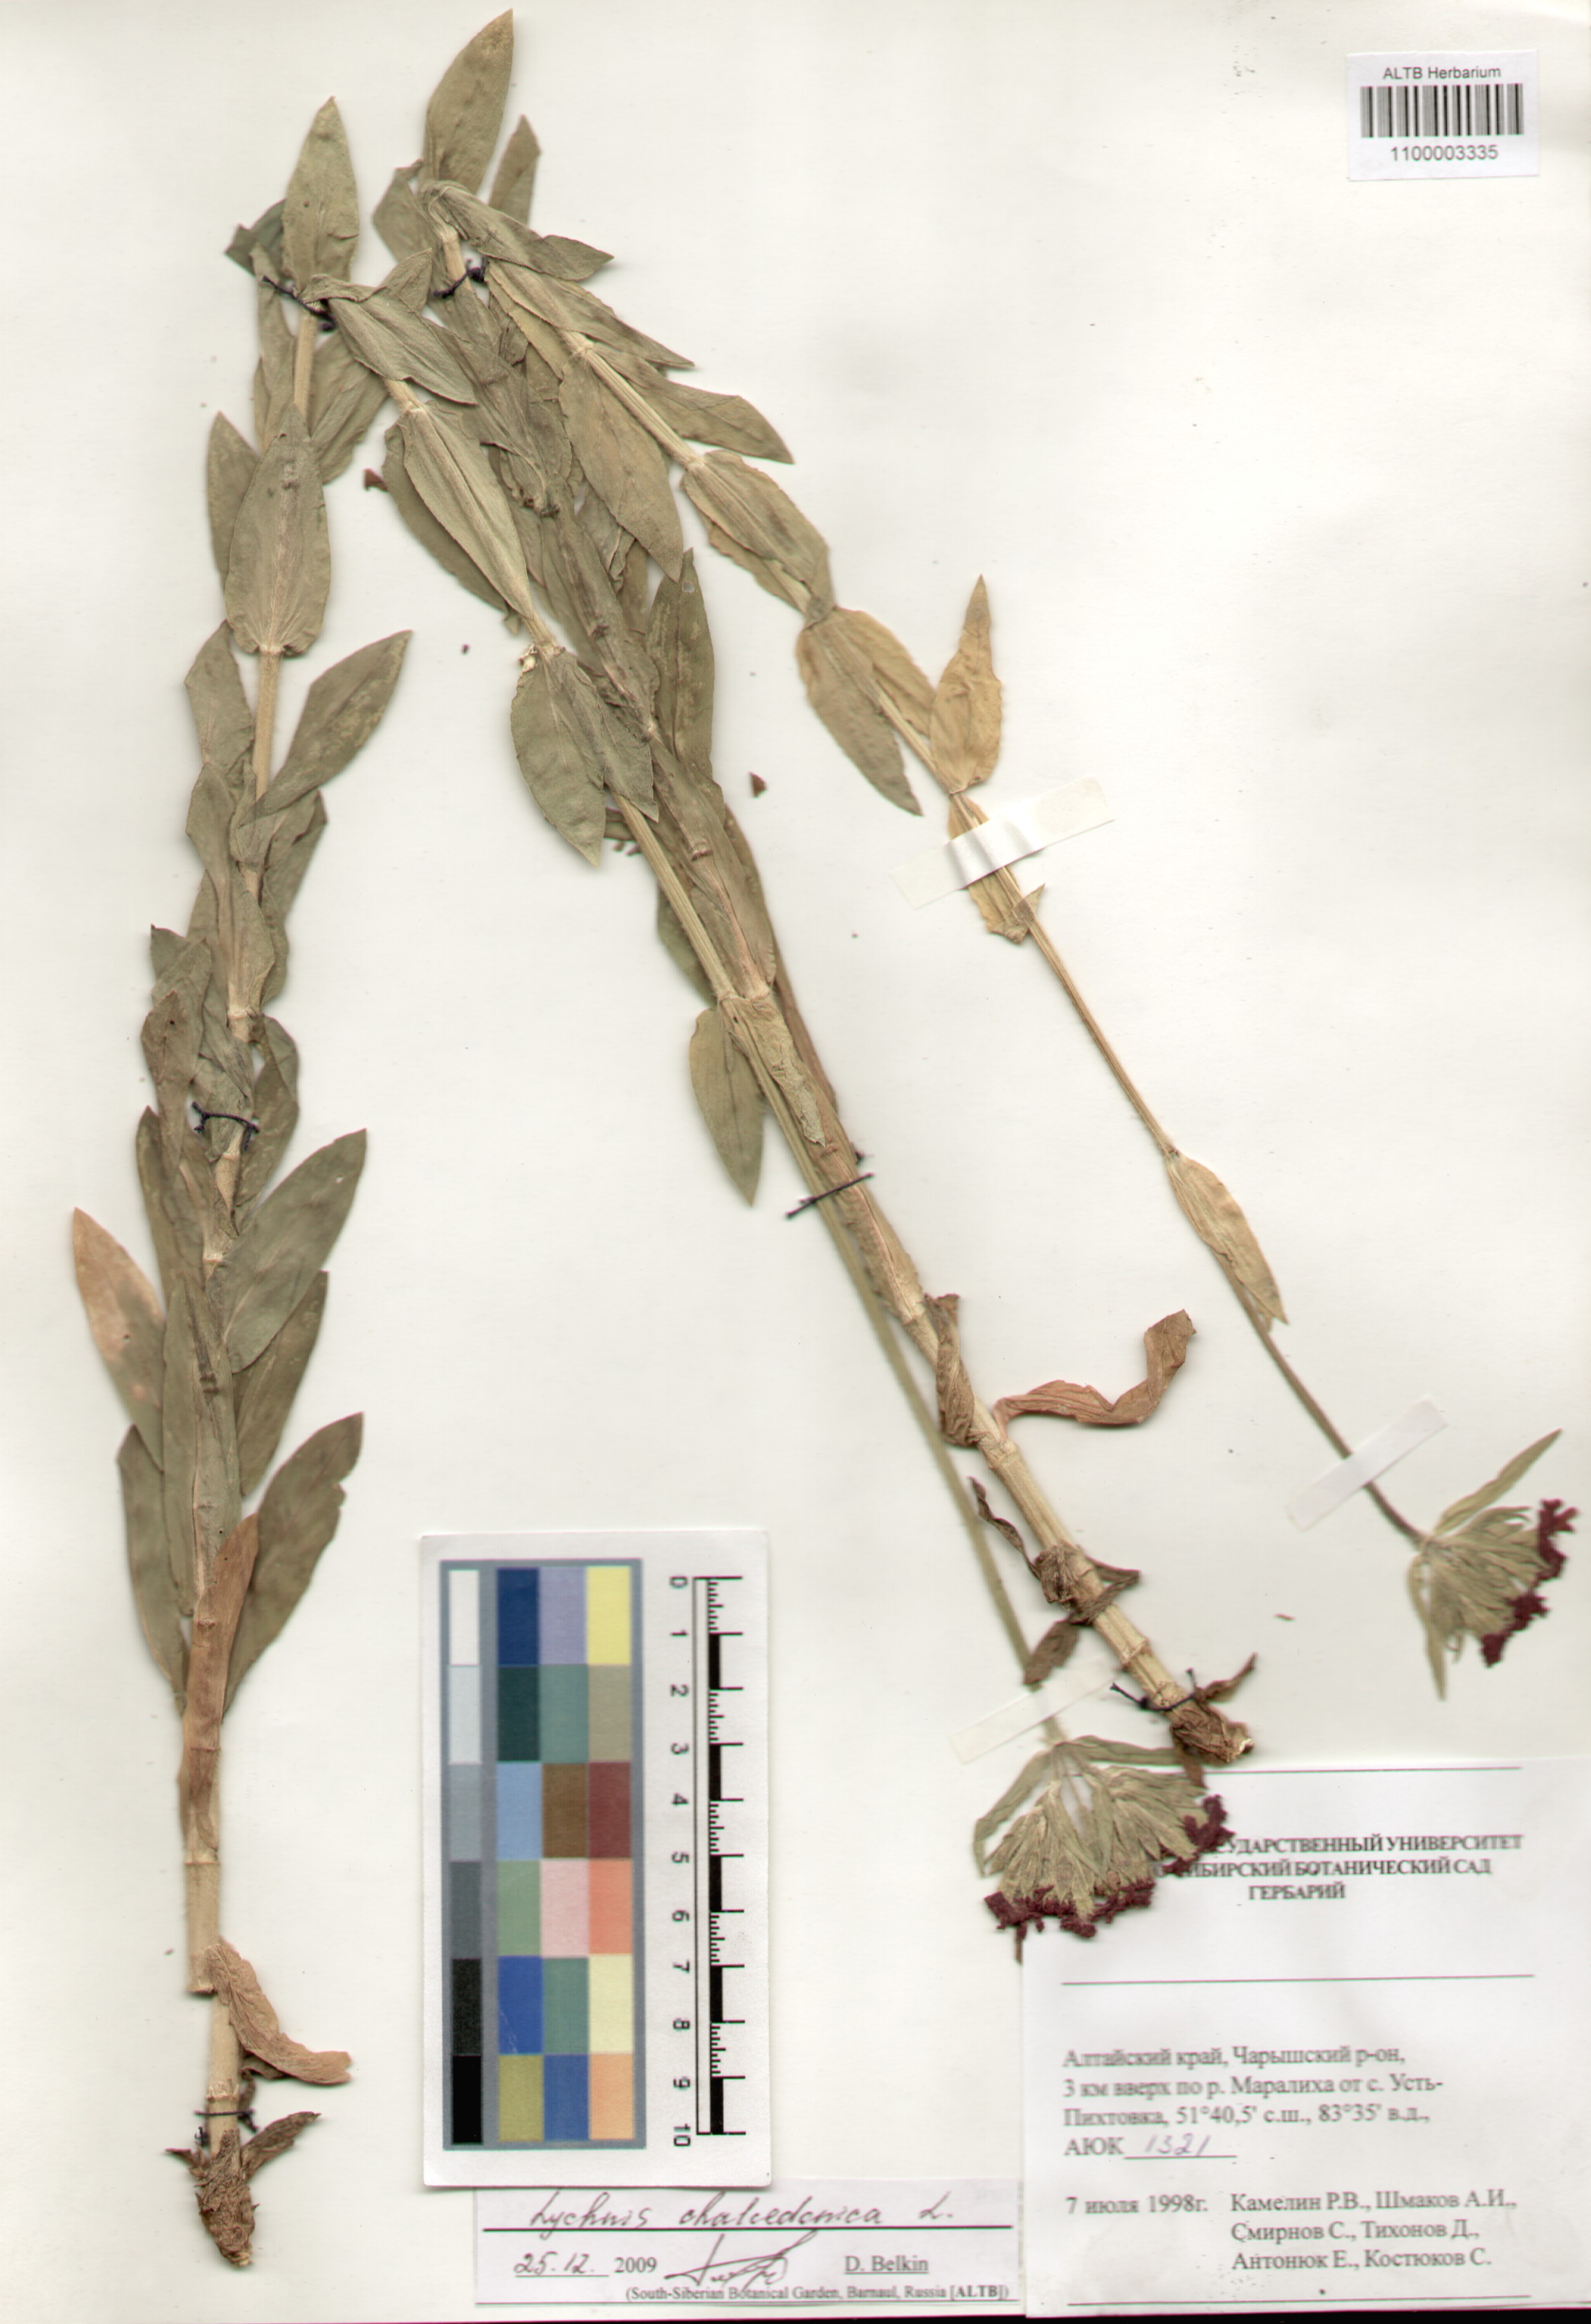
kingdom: Plantae
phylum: Tracheophyta
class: Magnoliopsida
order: Caryophyllales
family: Caryophyllaceae
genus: Silene
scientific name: Silene chalcedonica
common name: Maltese-cross
